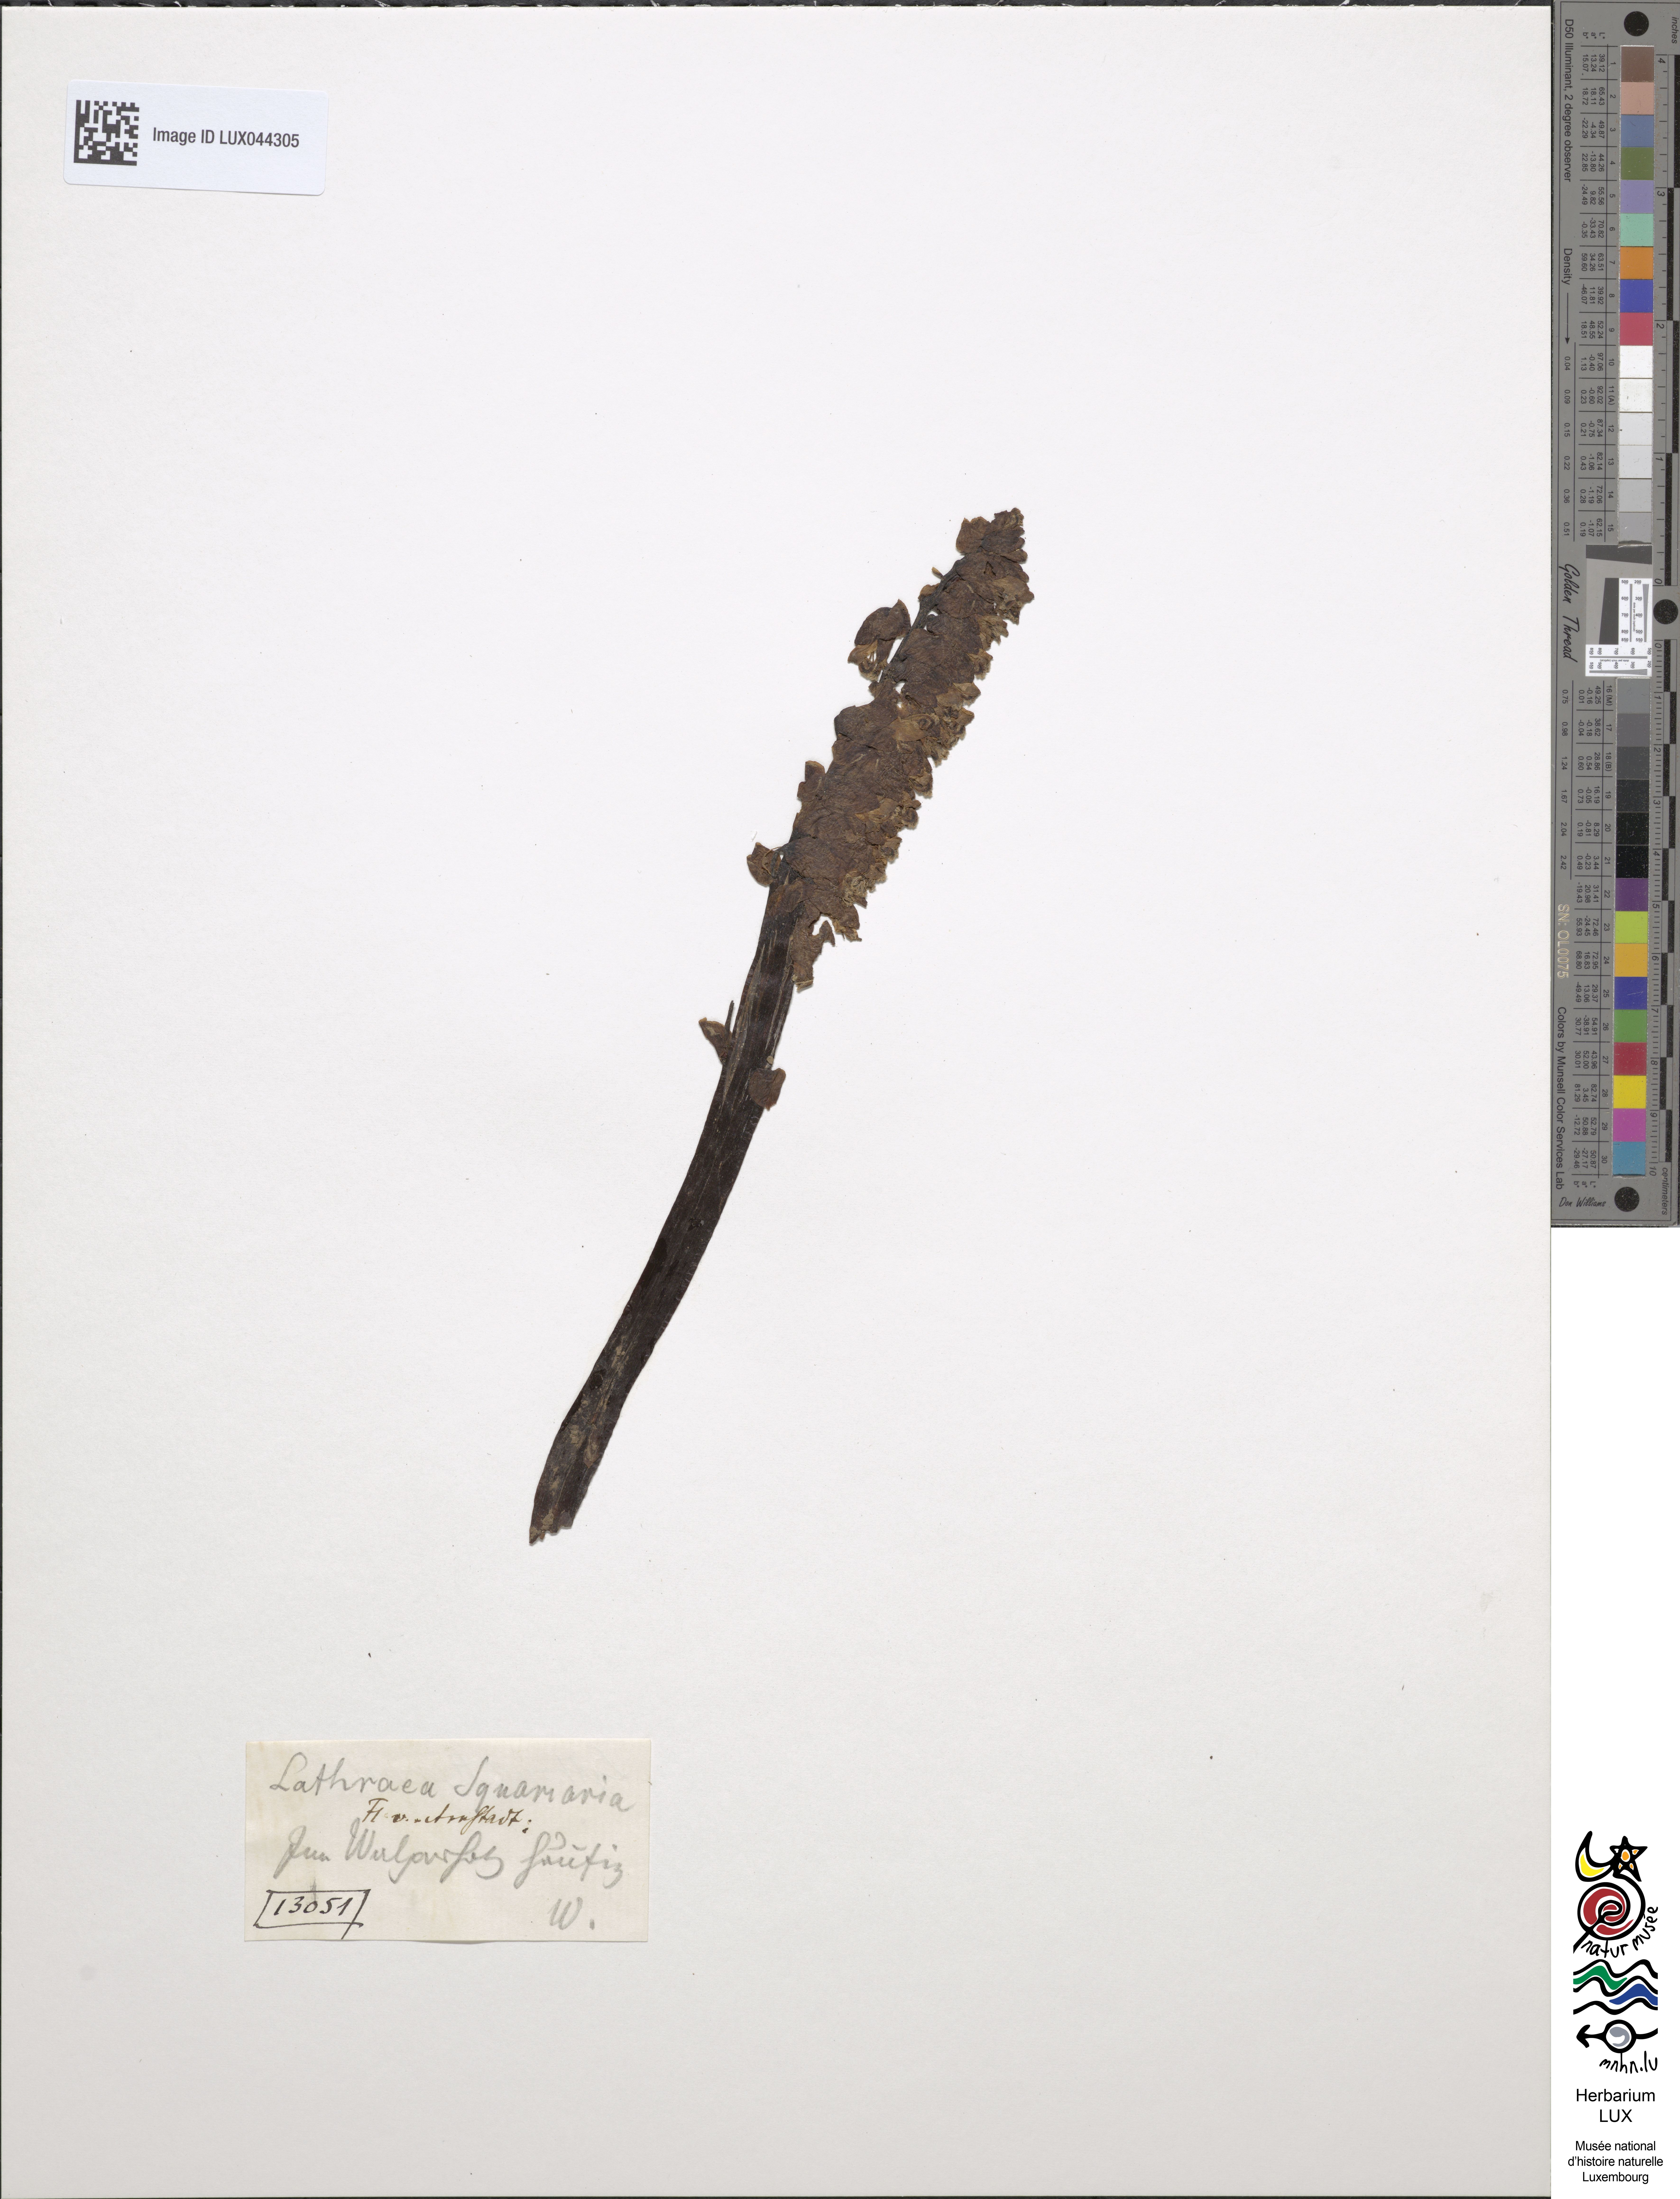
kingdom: Plantae
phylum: Tracheophyta
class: Magnoliopsida
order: Lamiales
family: Orobanchaceae
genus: Lathraea
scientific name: Lathraea squamaria
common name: Toothwort
